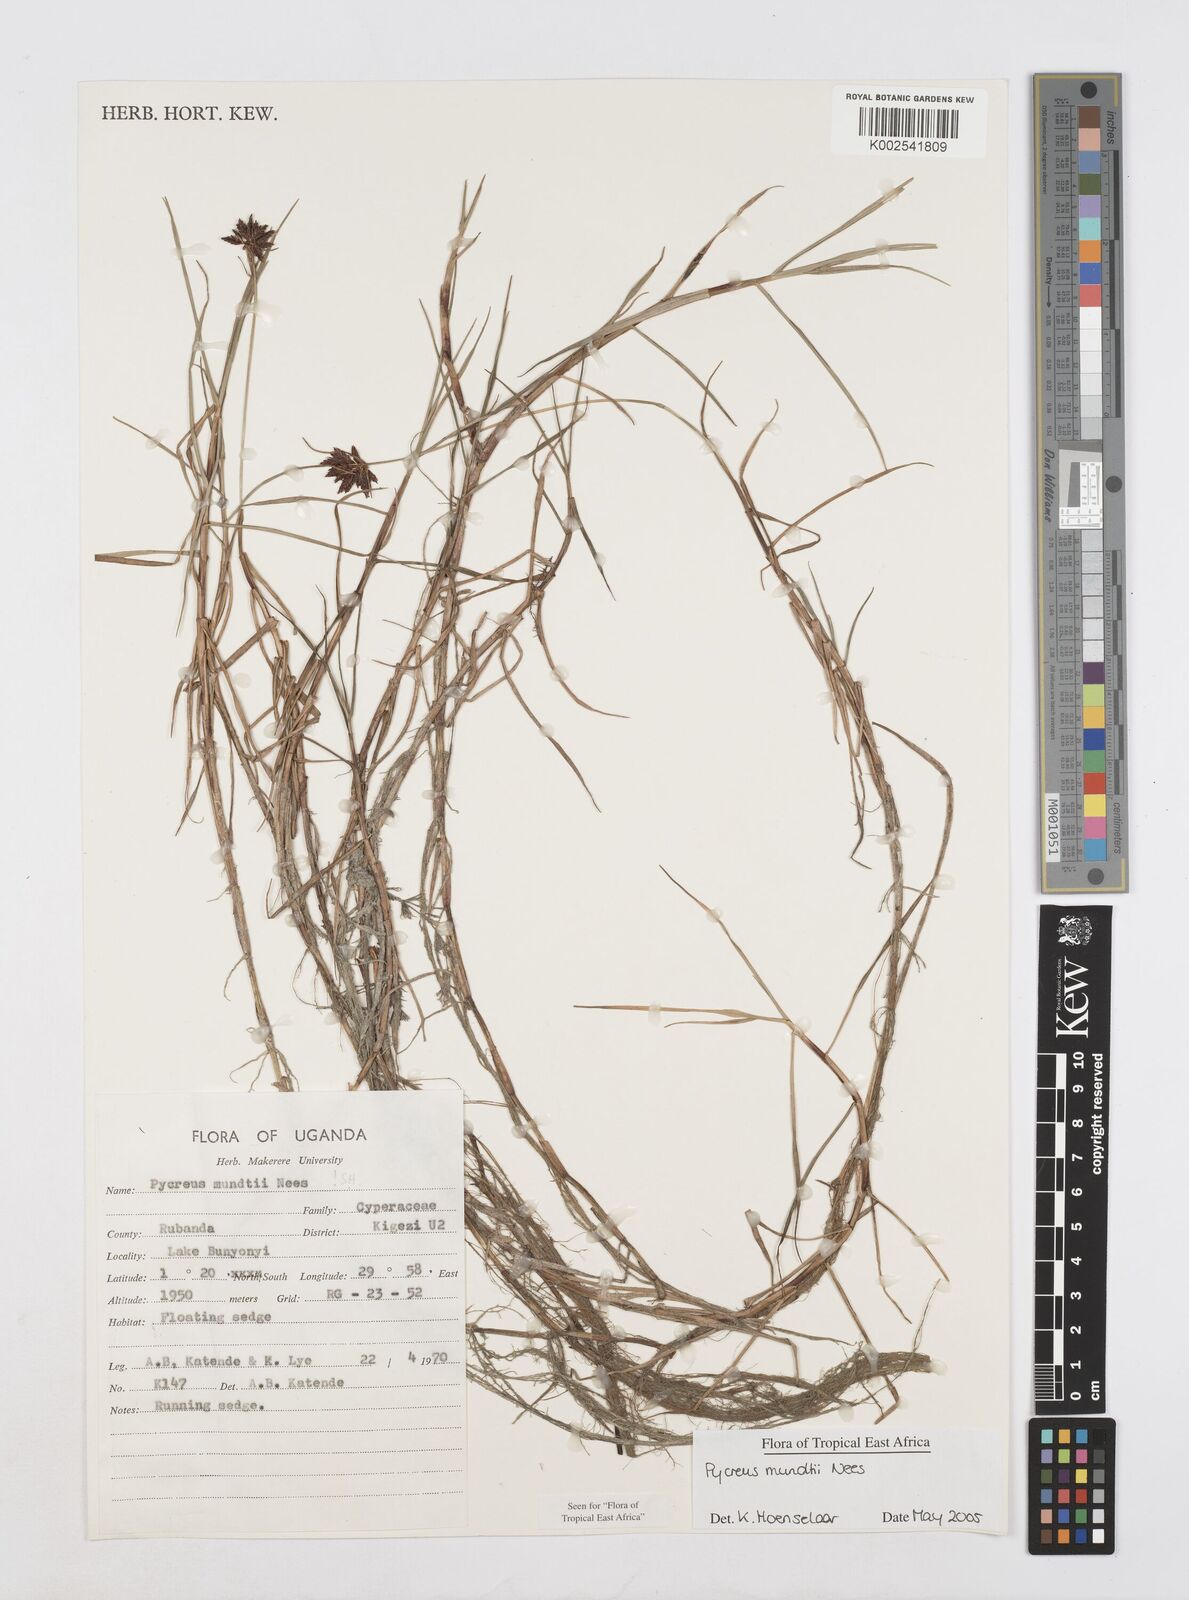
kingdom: Plantae
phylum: Tracheophyta
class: Liliopsida
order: Poales
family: Cyperaceae
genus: Cyperus
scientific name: Cyperus mundii
